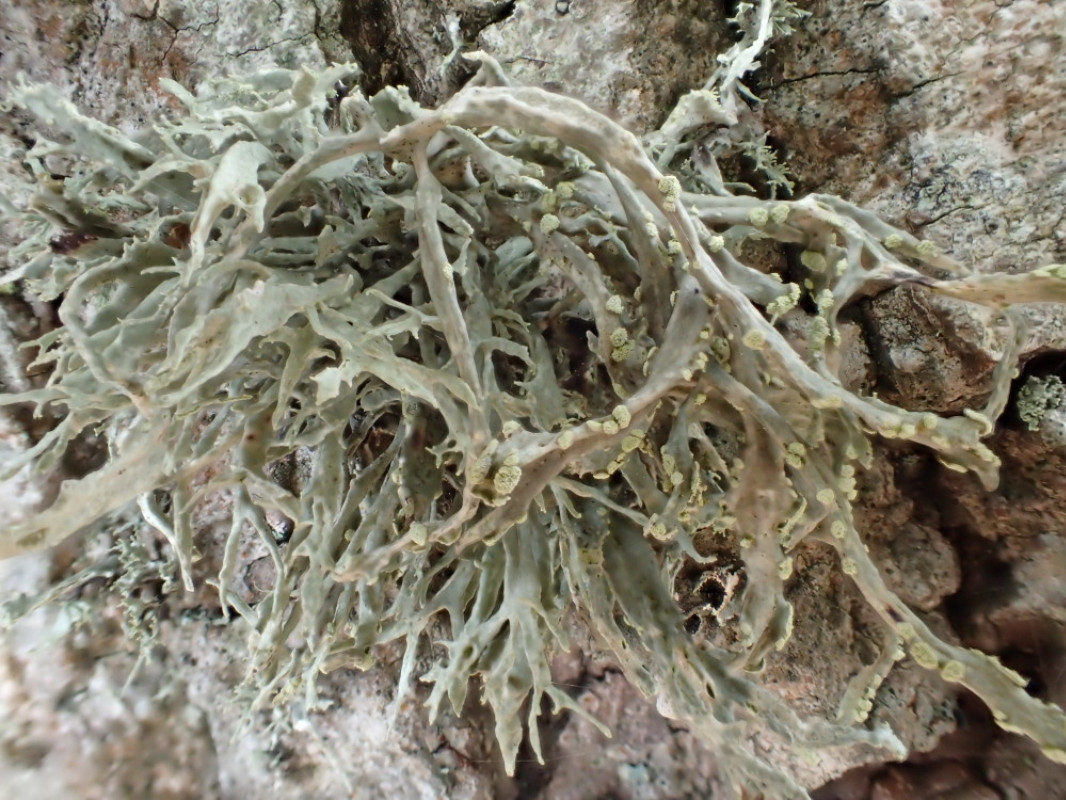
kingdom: Fungi
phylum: Ascomycota
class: Lecanoromycetes
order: Lecanorales
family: Ramalinaceae
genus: Ramalina
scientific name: Ramalina farinacea
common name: melet grenlav
